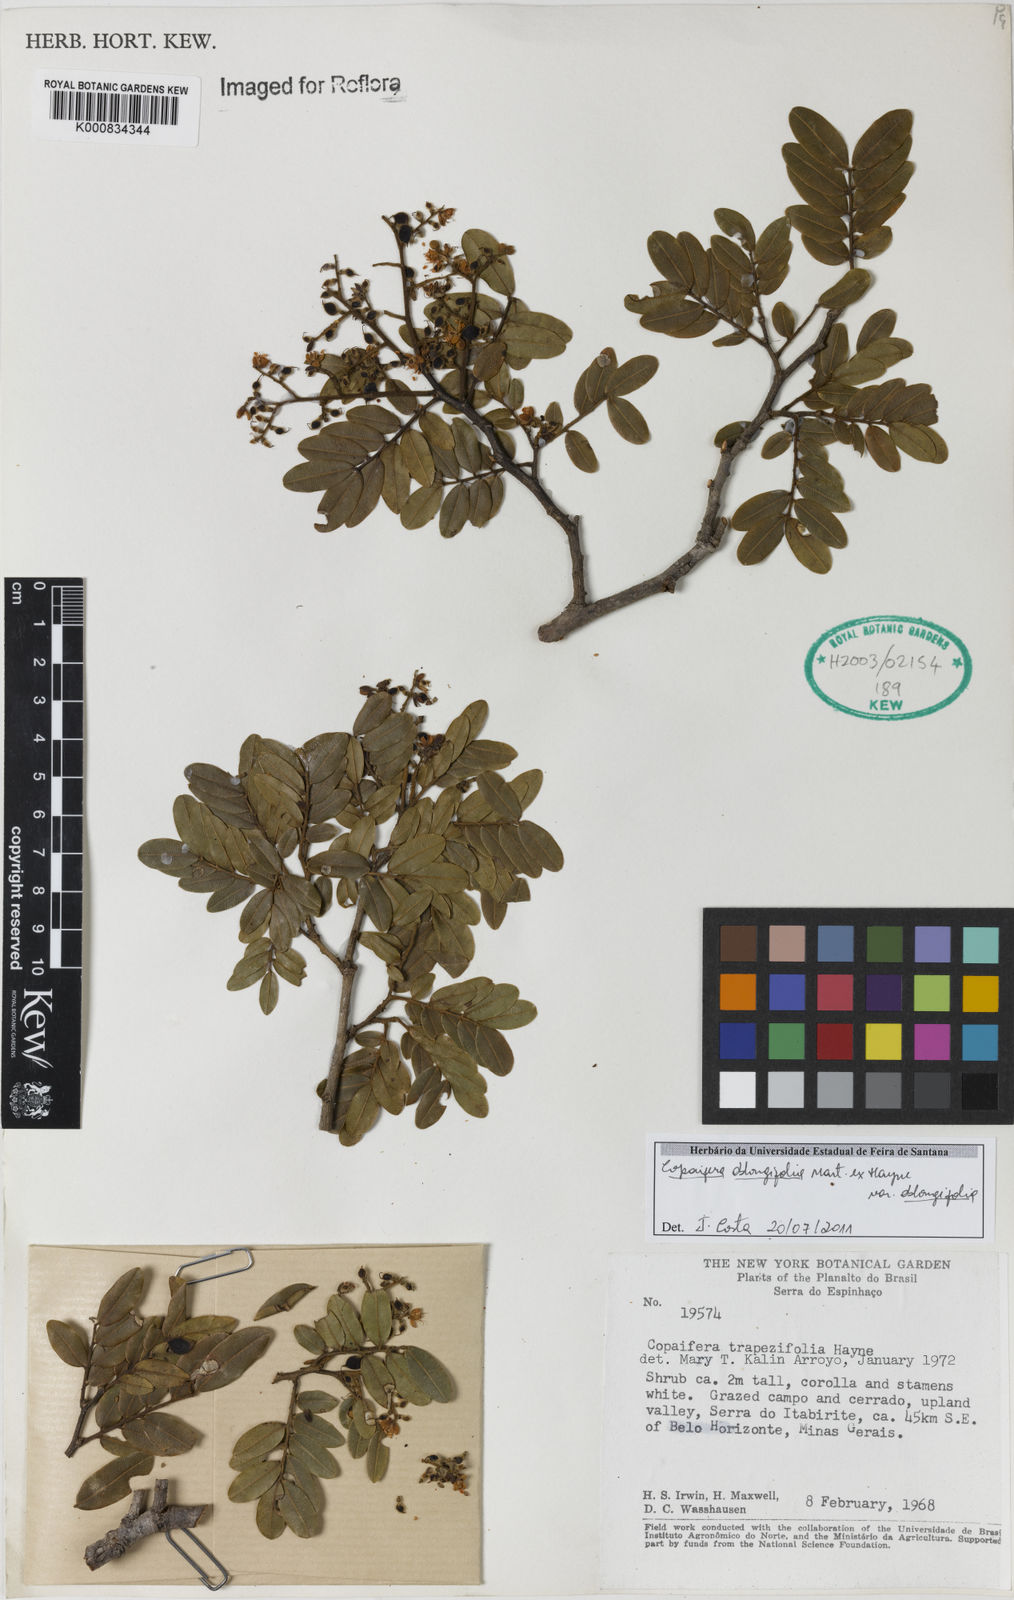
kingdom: Plantae
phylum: Tracheophyta
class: Magnoliopsida
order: Fabales
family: Fabaceae
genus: Copaifera
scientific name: Copaifera
